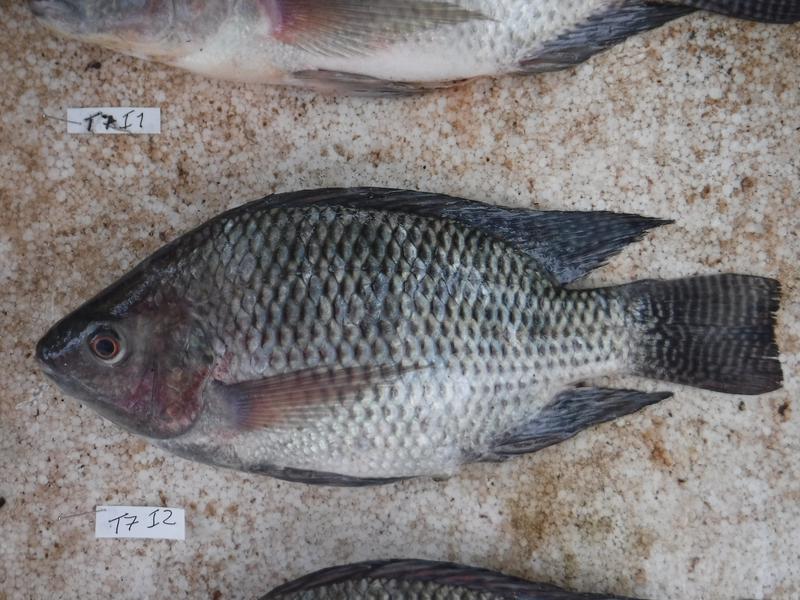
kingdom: Animalia
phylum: Chordata
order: Perciformes
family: Cichlidae
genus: Oreochromis
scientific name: Oreochromis niloticus
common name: Nile tilapia
